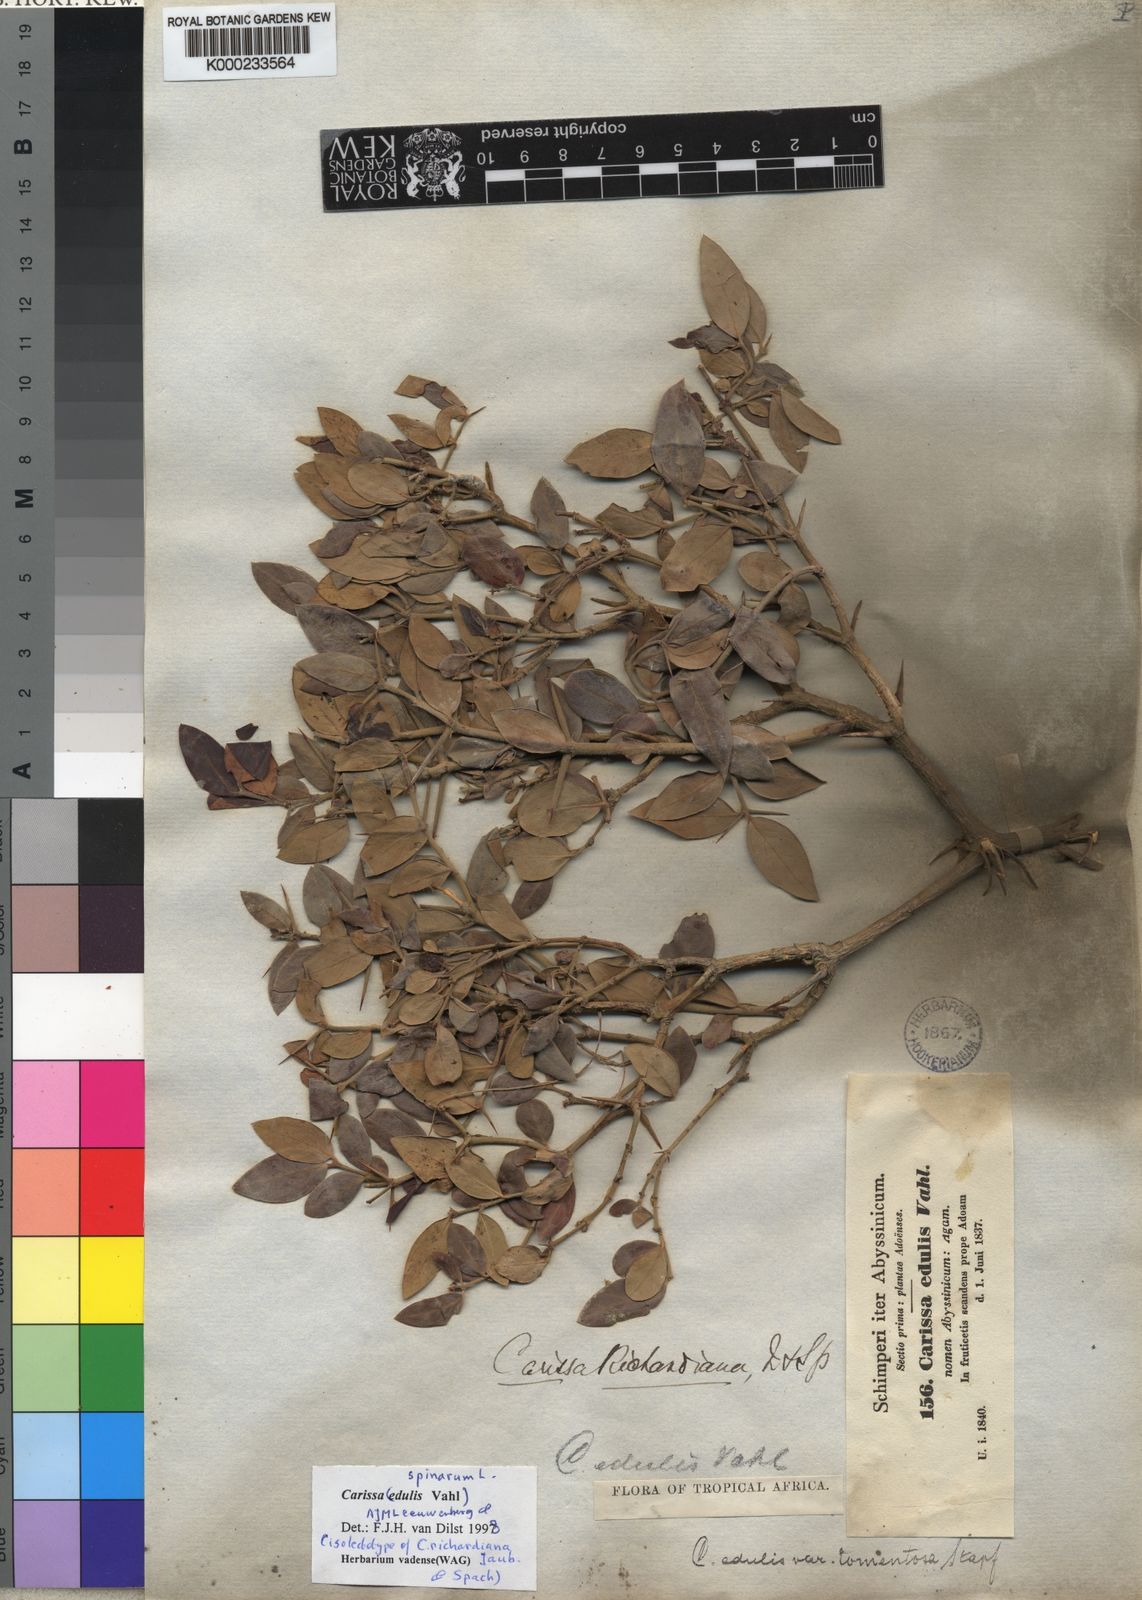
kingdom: Plantae
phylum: Tracheophyta
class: Magnoliopsida
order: Gentianales
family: Apocynaceae
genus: Carissa
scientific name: Carissa spinarum
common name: Egyptian carissa
